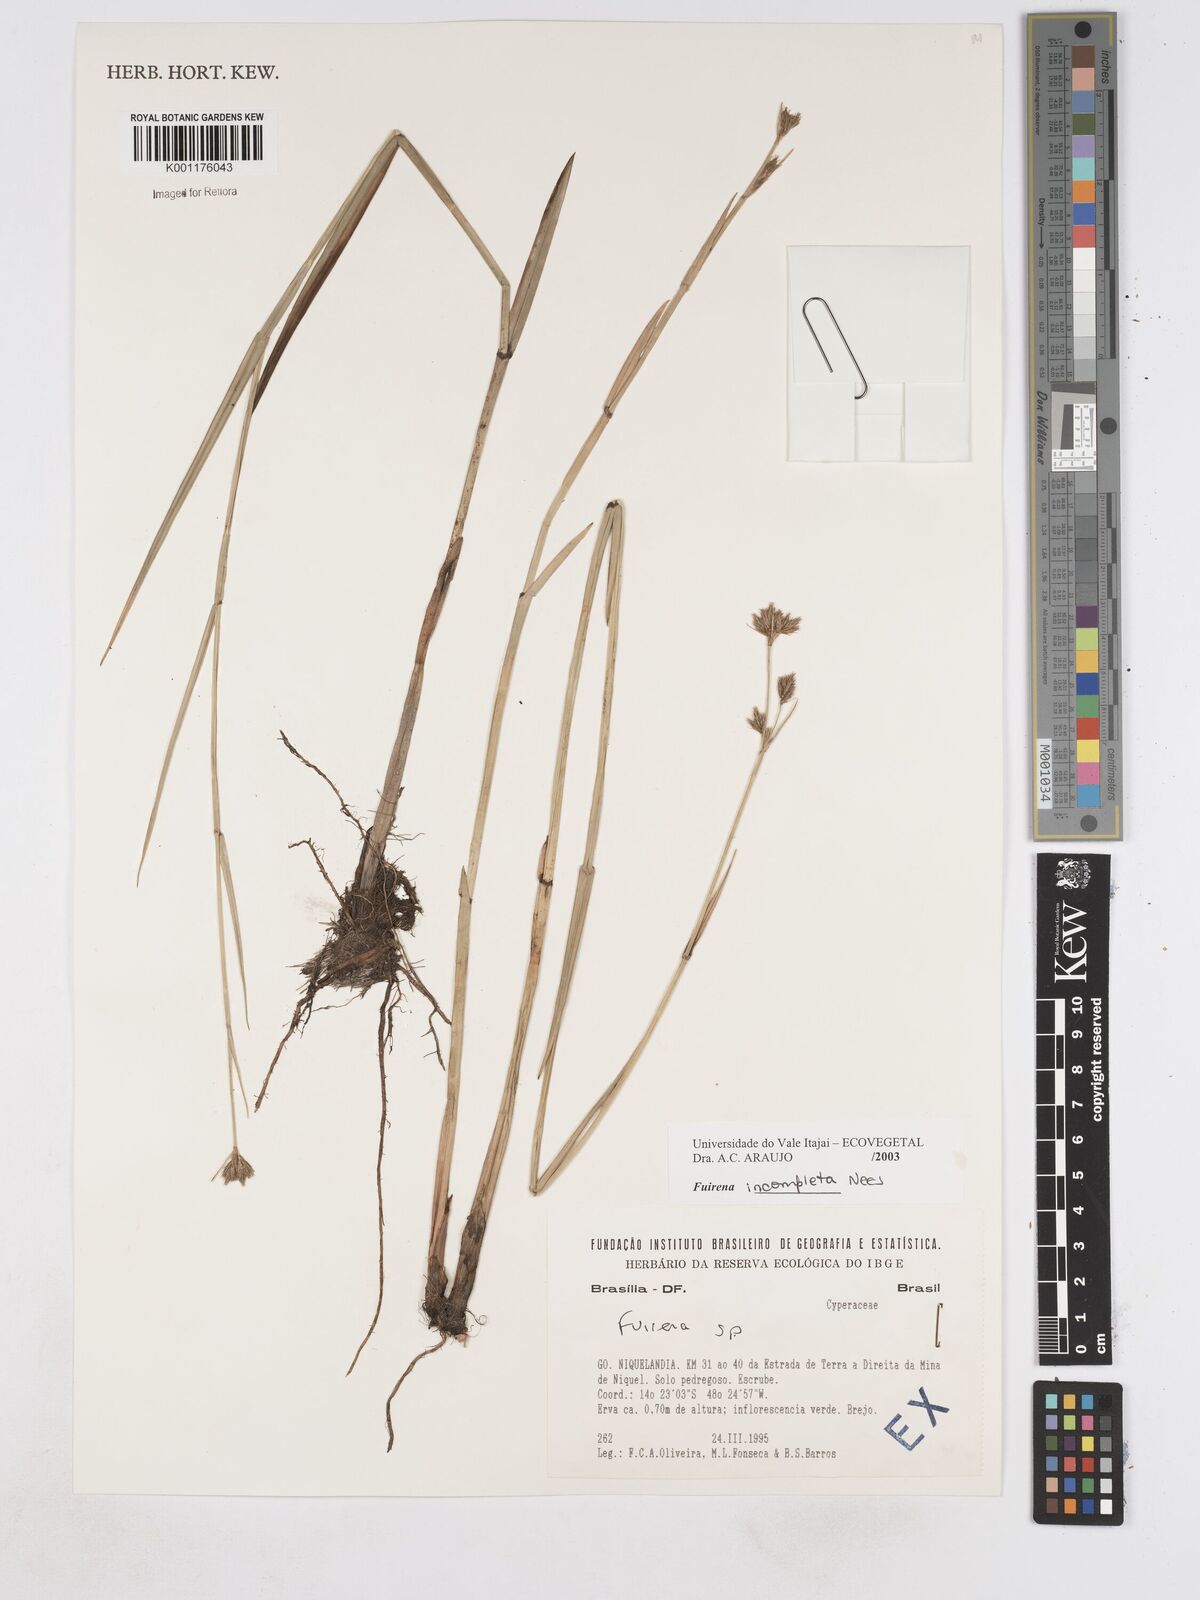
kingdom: Plantae
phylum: Tracheophyta
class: Liliopsida
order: Poales
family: Cyperaceae
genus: Fuirena
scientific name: Fuirena incompleta
